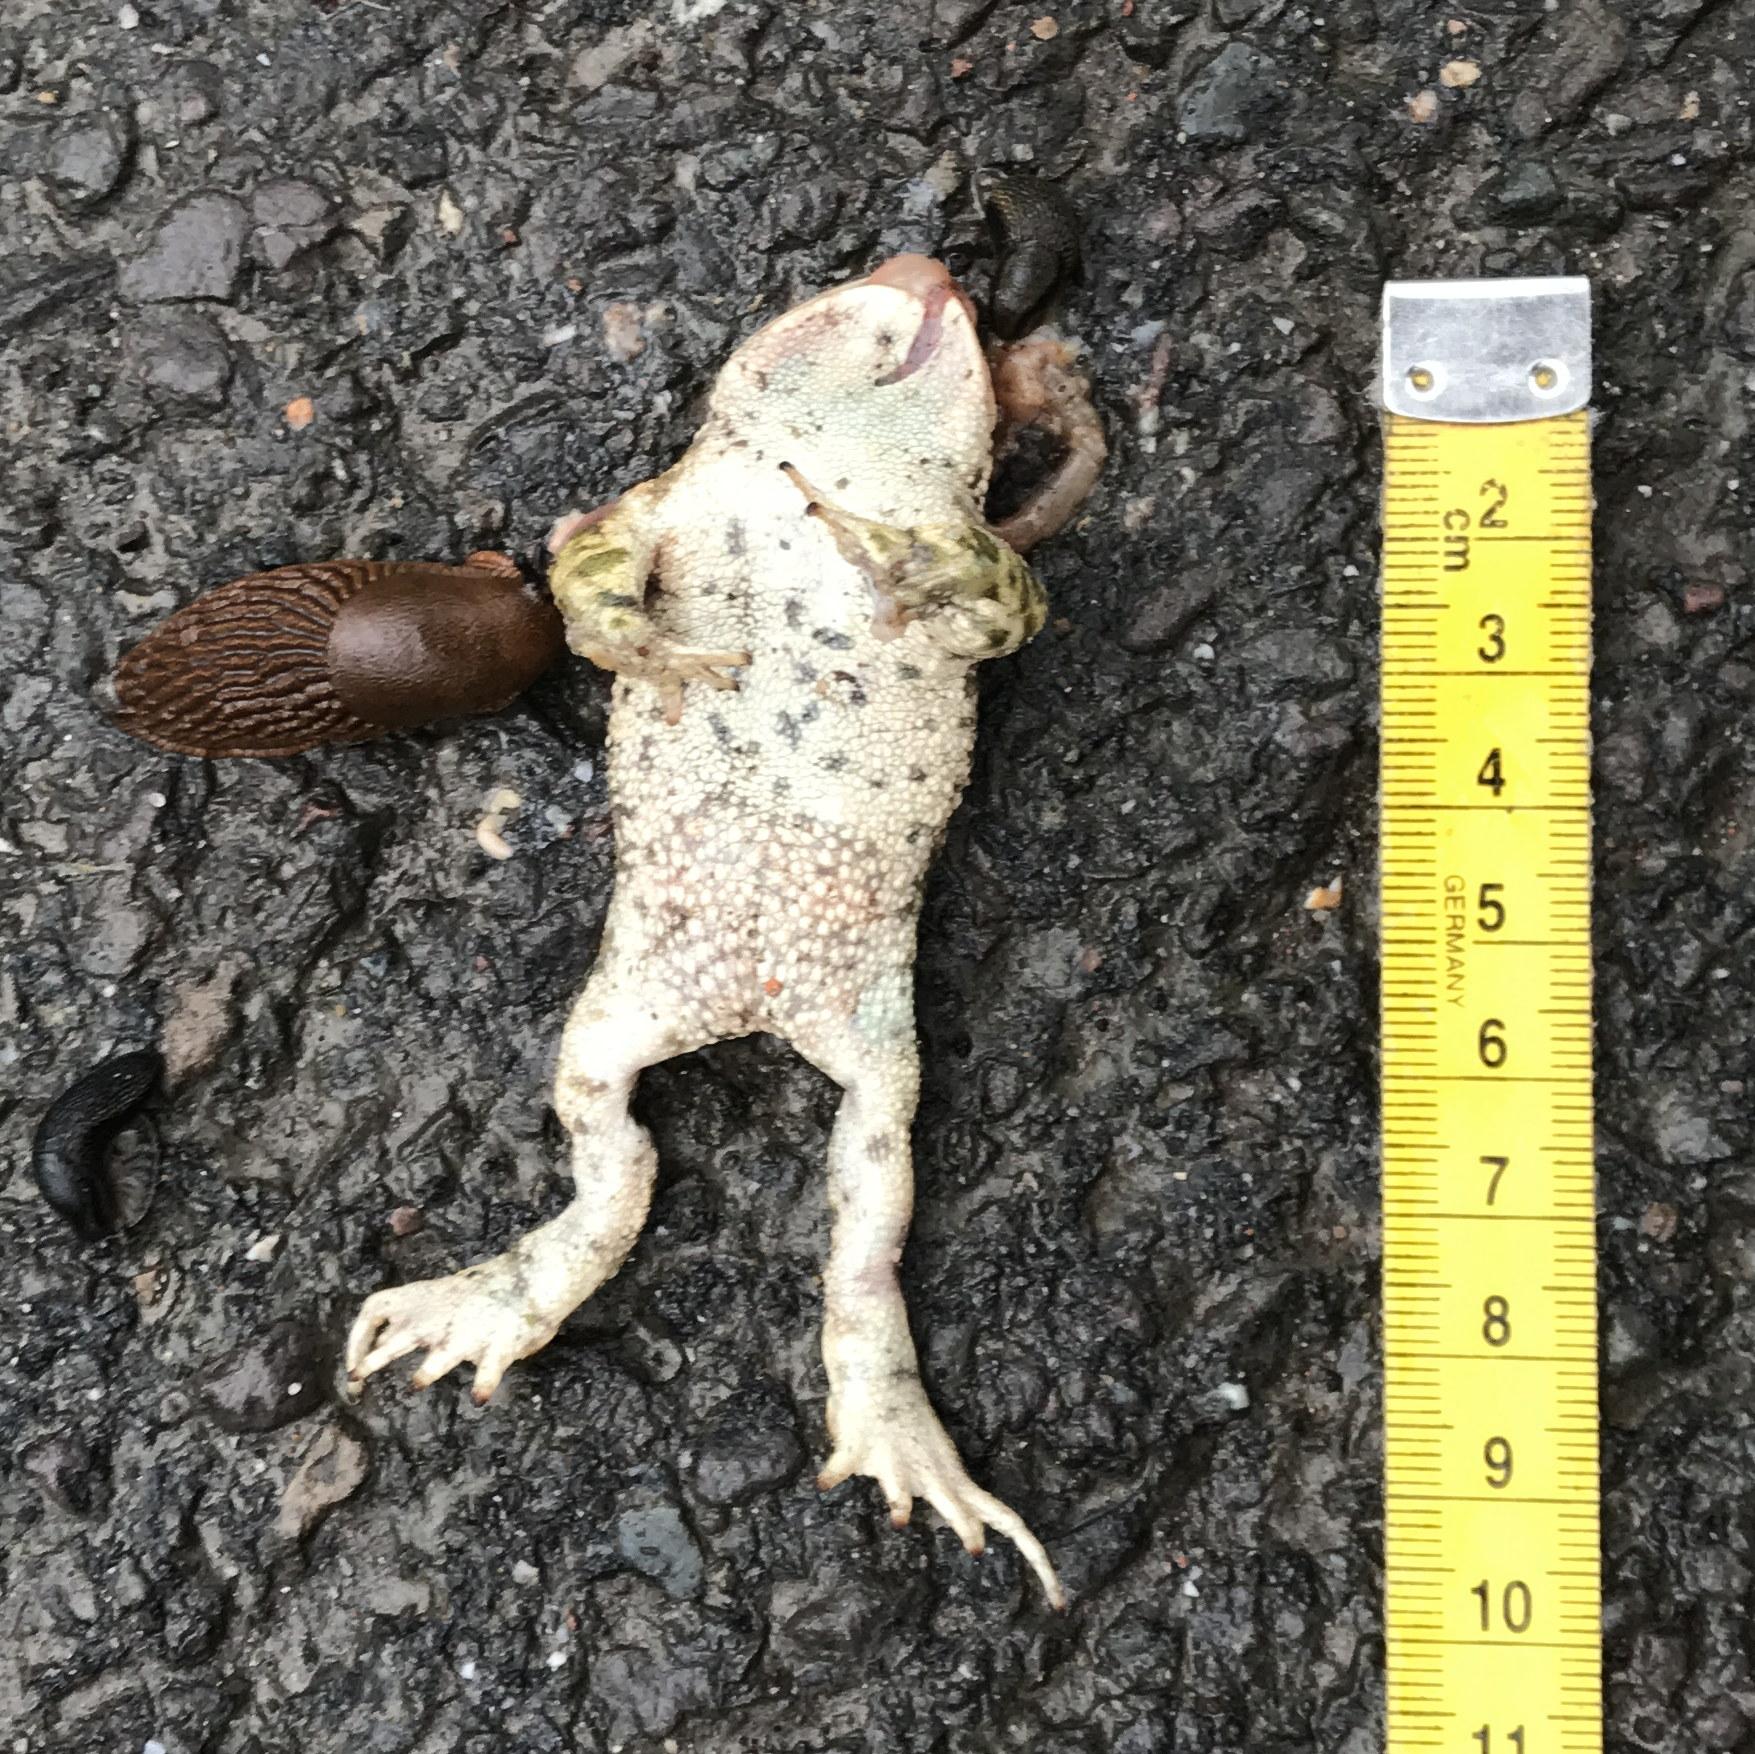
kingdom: Animalia
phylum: Chordata
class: Amphibia
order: Anura
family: Bufonidae
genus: Epidalea
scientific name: Epidalea calamita
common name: Natterjack toad
